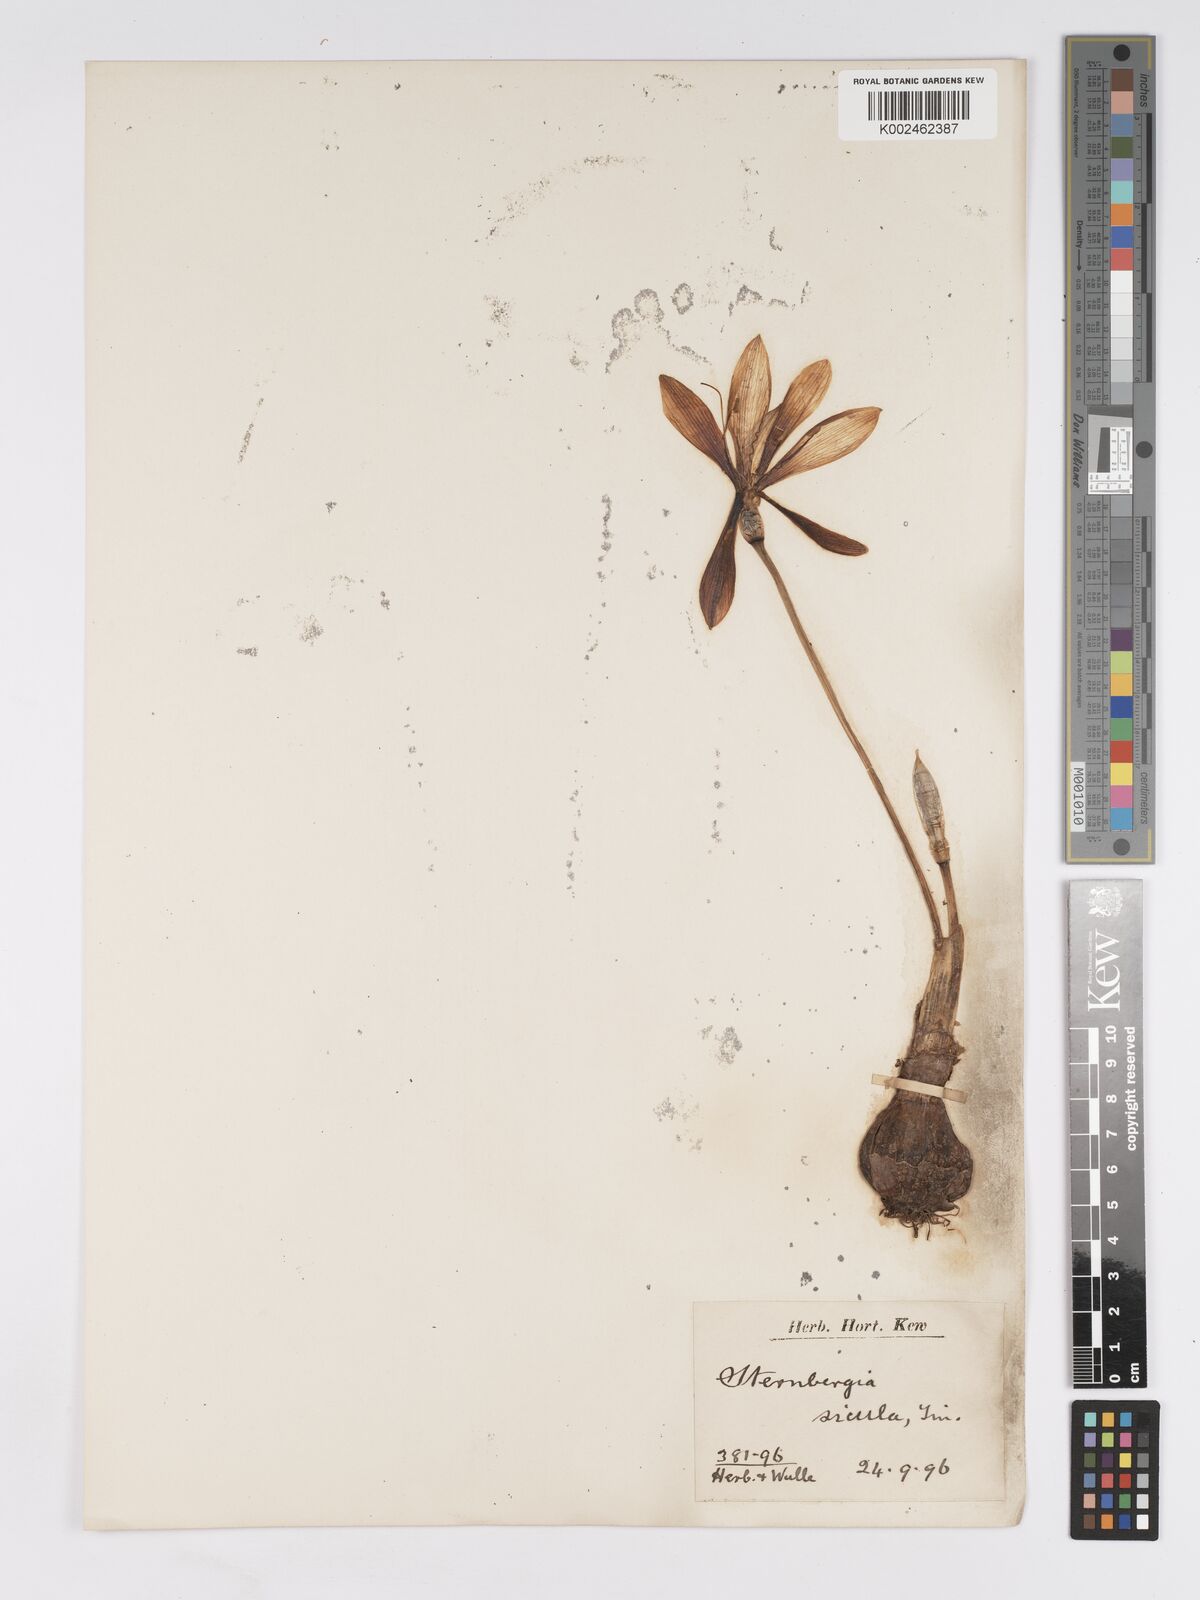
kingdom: Plantae
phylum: Tracheophyta
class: Liliopsida
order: Asparagales
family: Amaryllidaceae
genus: Sternbergia
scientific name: Sternbergia lutea
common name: Winter daffodil
